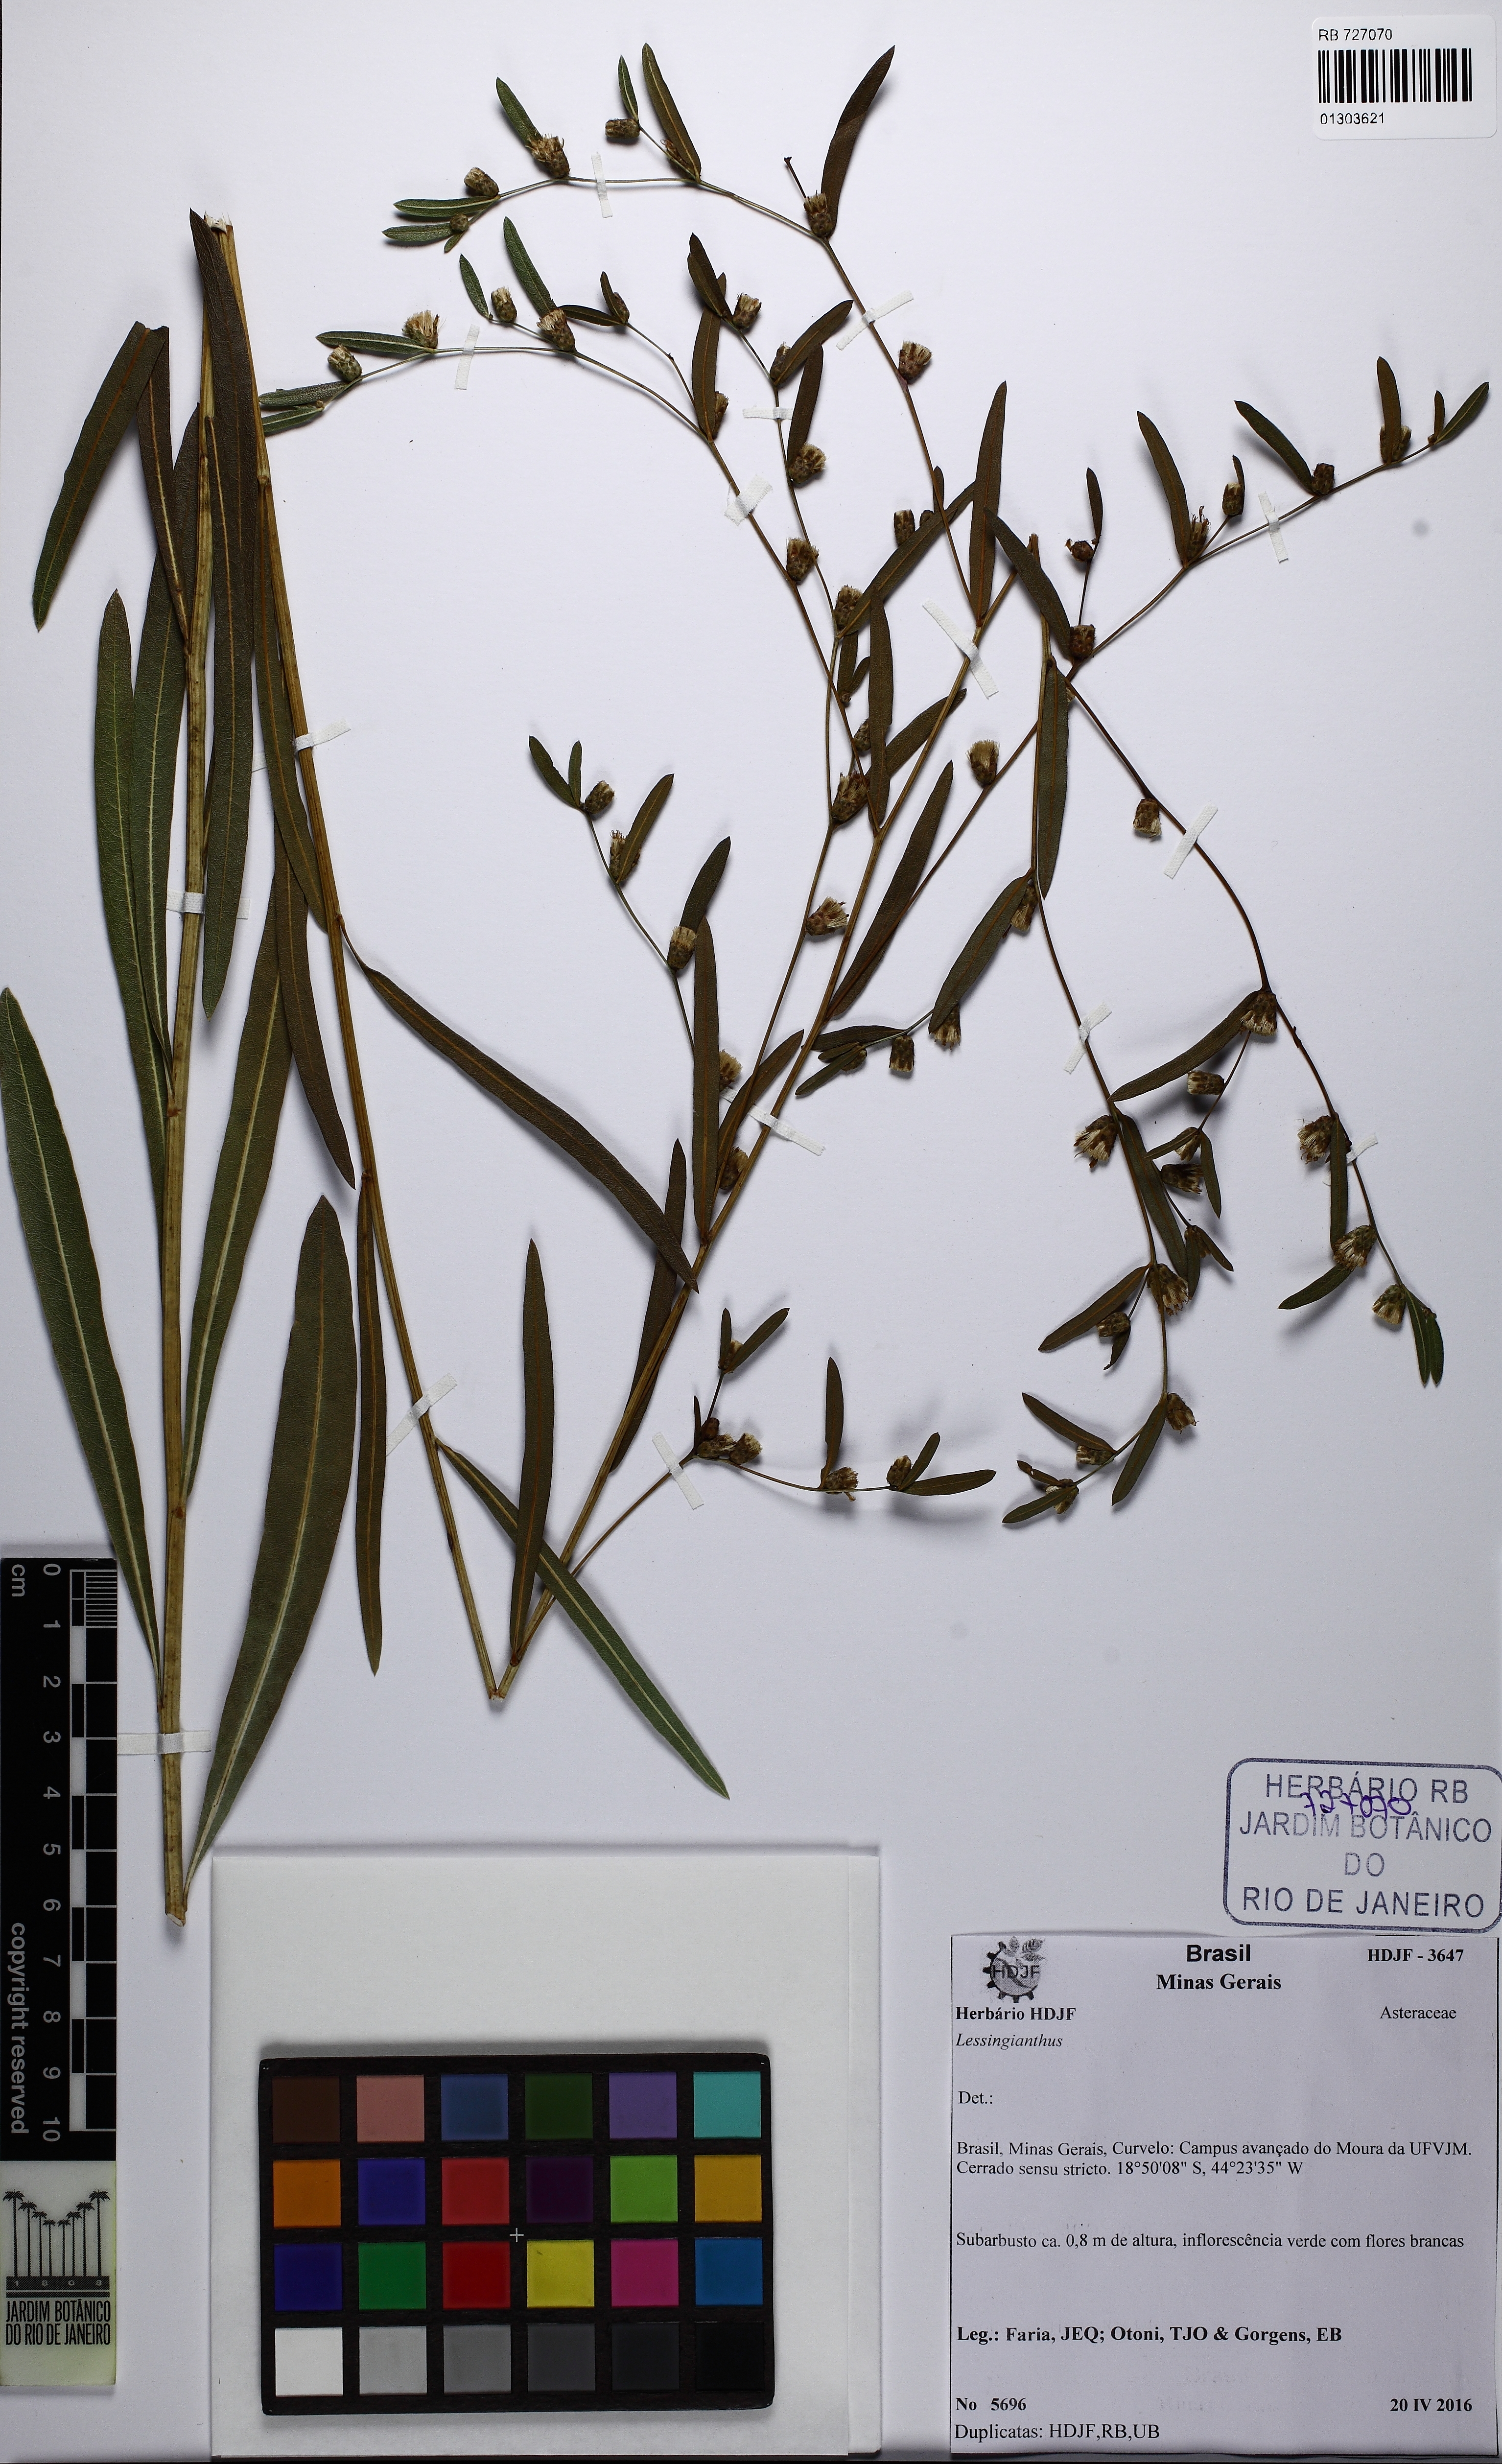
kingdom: Plantae
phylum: Tracheophyta
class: Magnoliopsida
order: Asterales
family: Asteraceae
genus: Lessingianthus
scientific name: Lessingianthus
